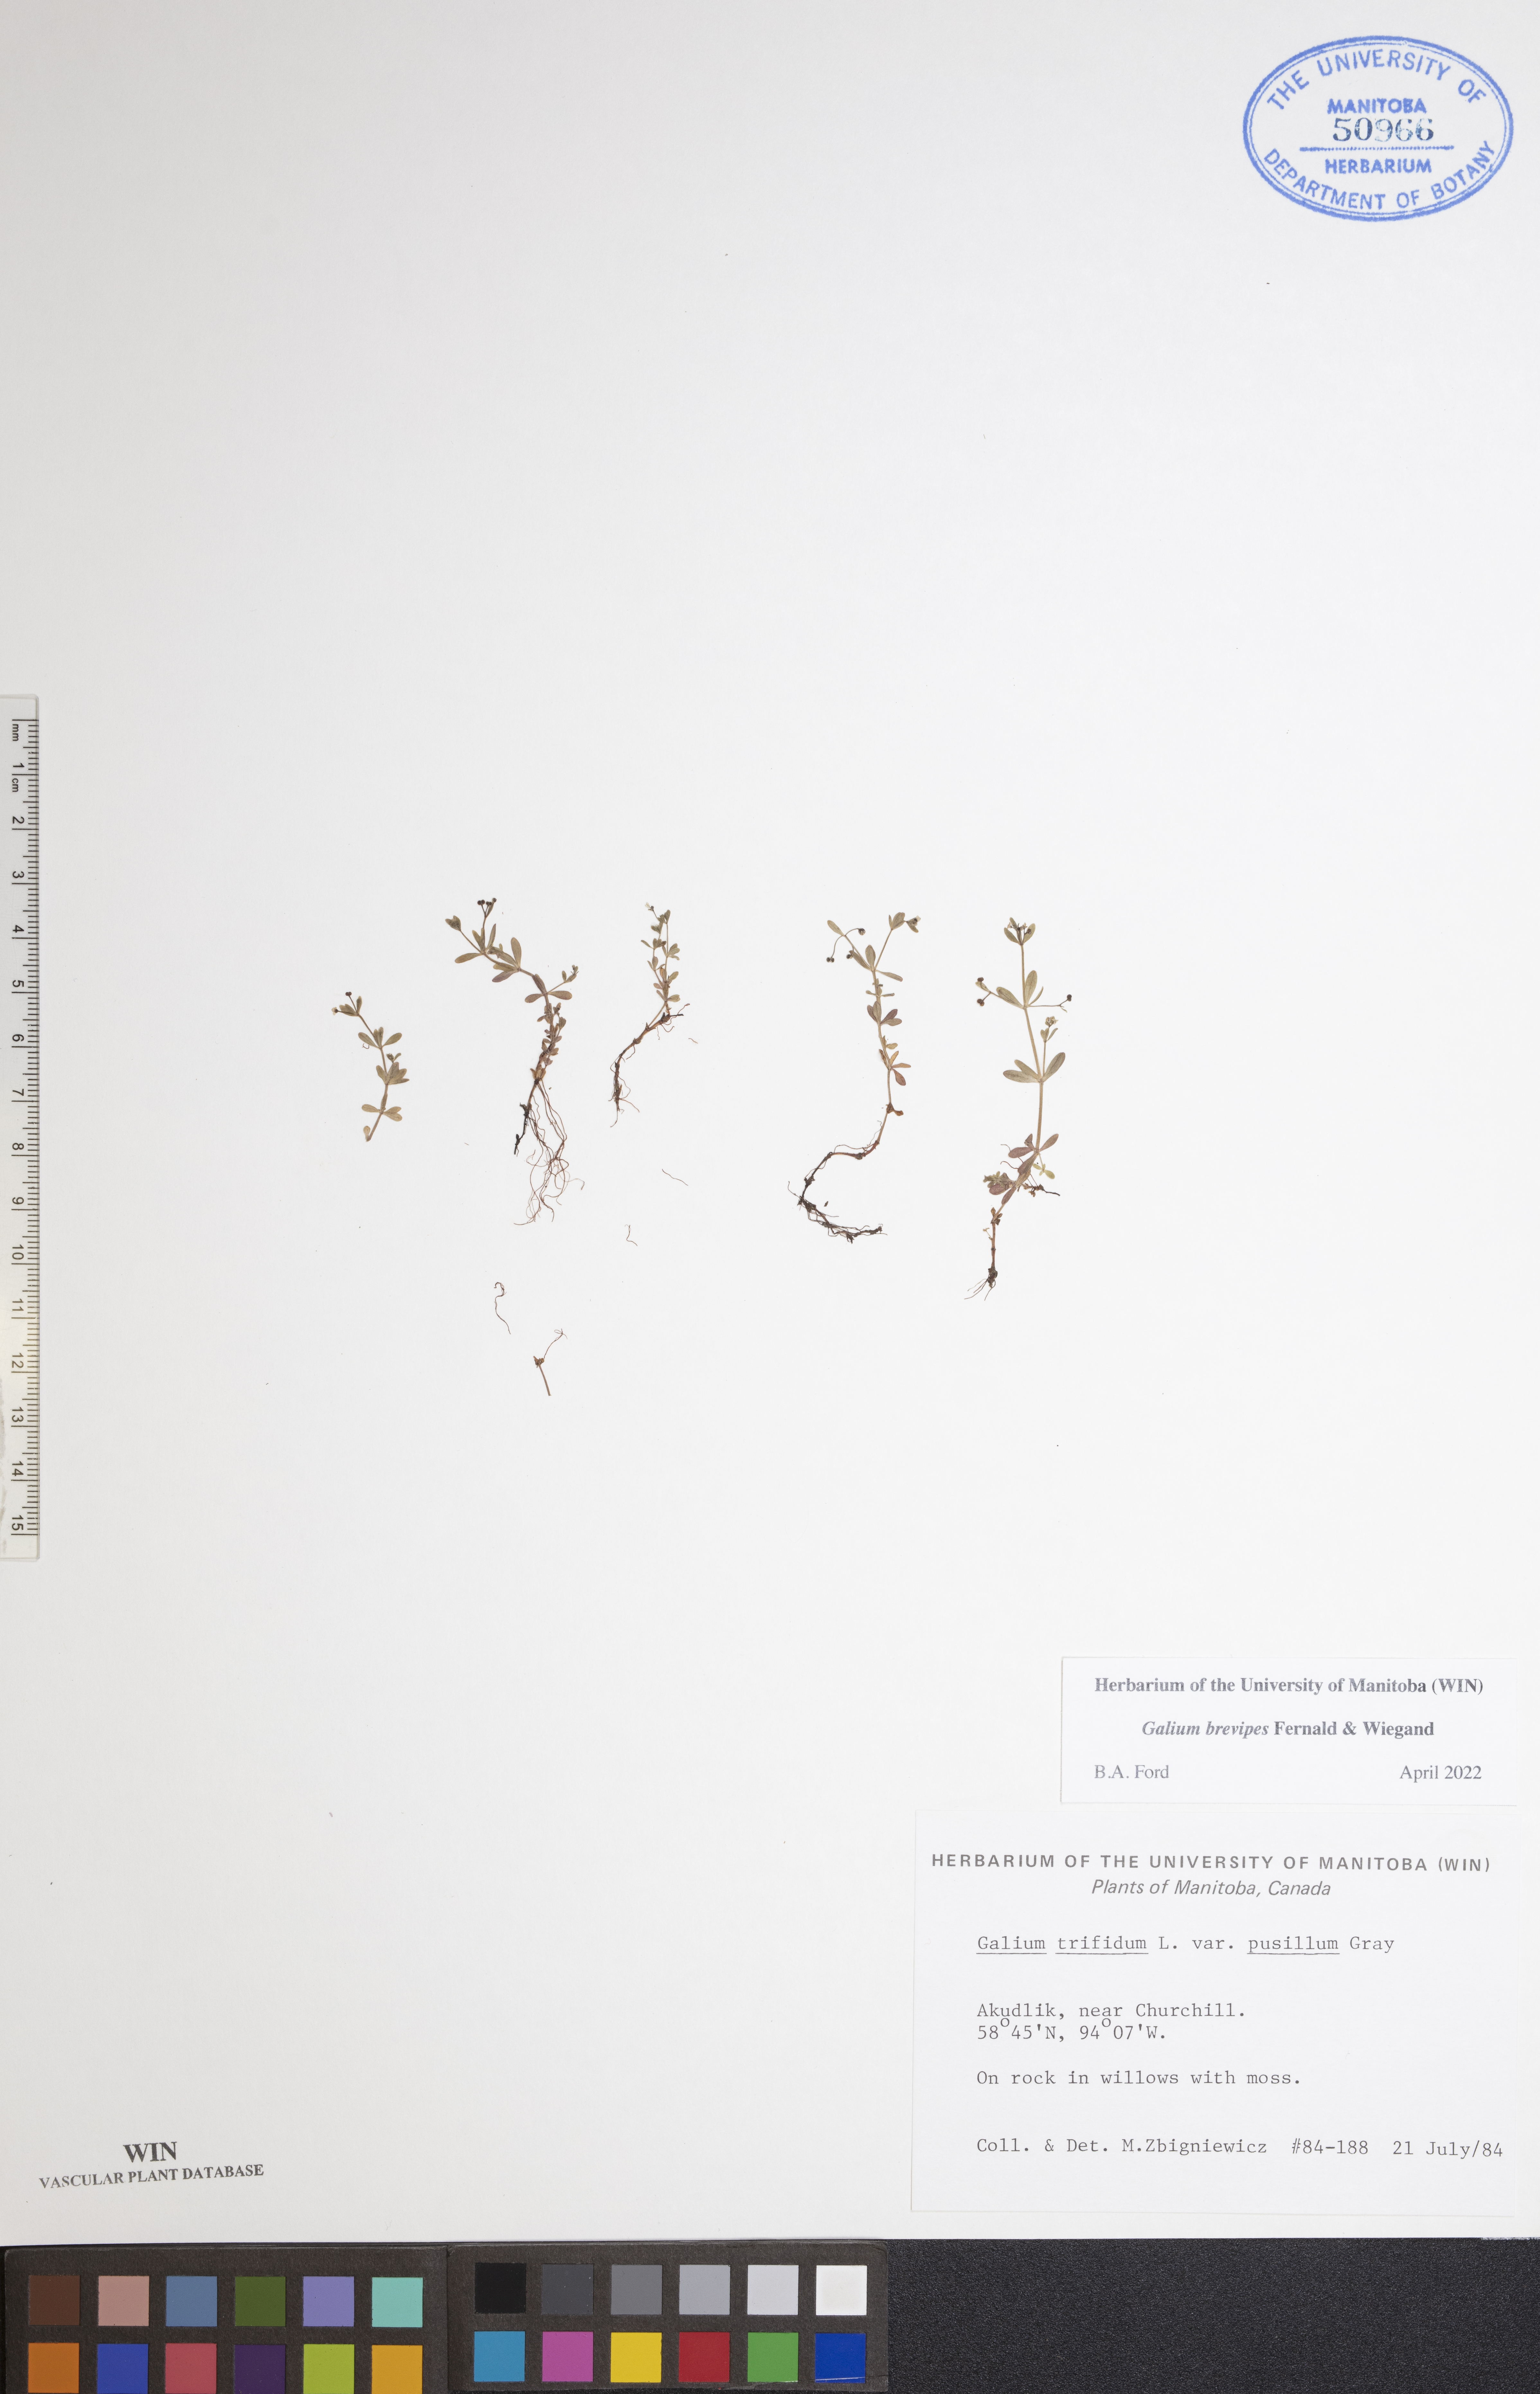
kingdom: Plantae
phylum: Tracheophyta
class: Magnoliopsida
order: Gentianales
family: Rubiaceae
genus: Galium
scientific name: Galium domingense
